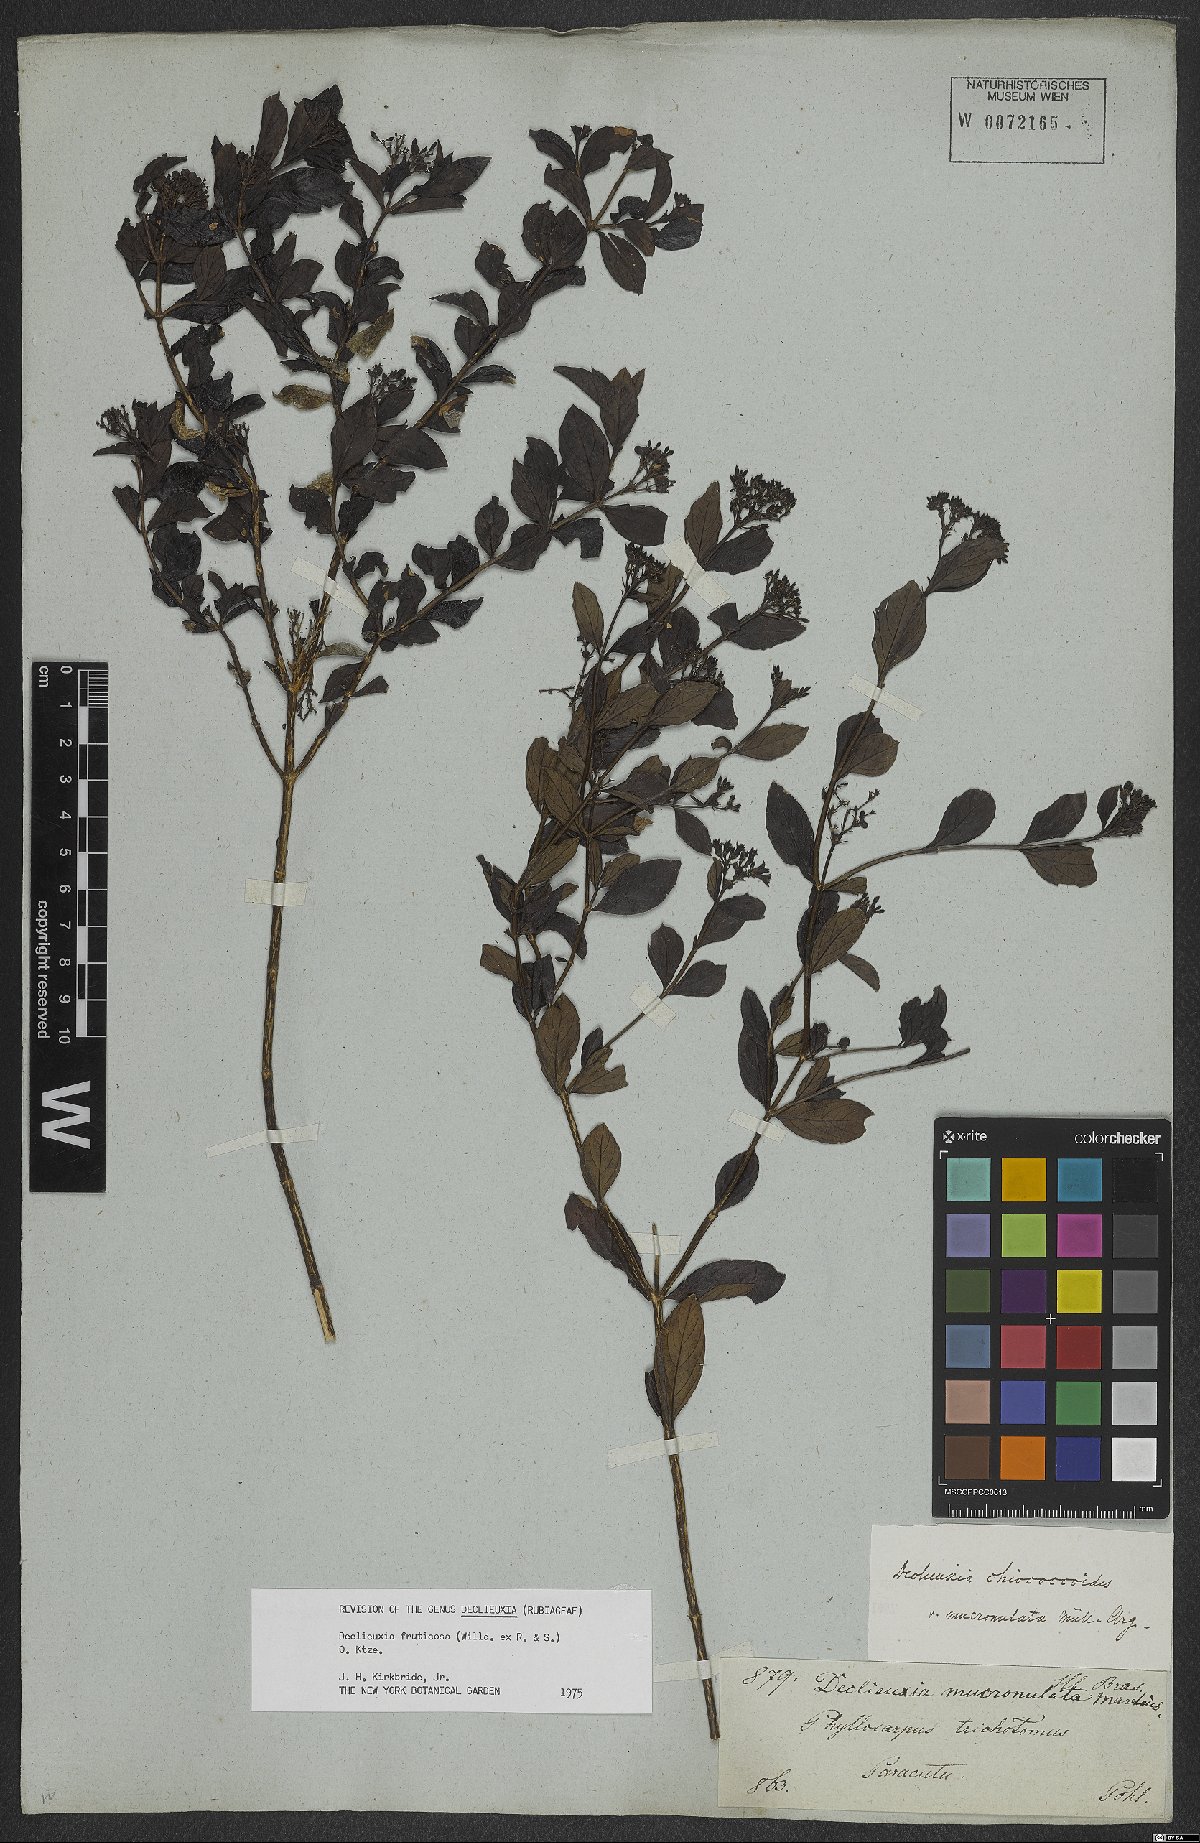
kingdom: Plantae
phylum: Tracheophyta
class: Magnoliopsida
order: Gentianales
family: Rubiaceae
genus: Declieuxia
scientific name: Declieuxia fruticosa
